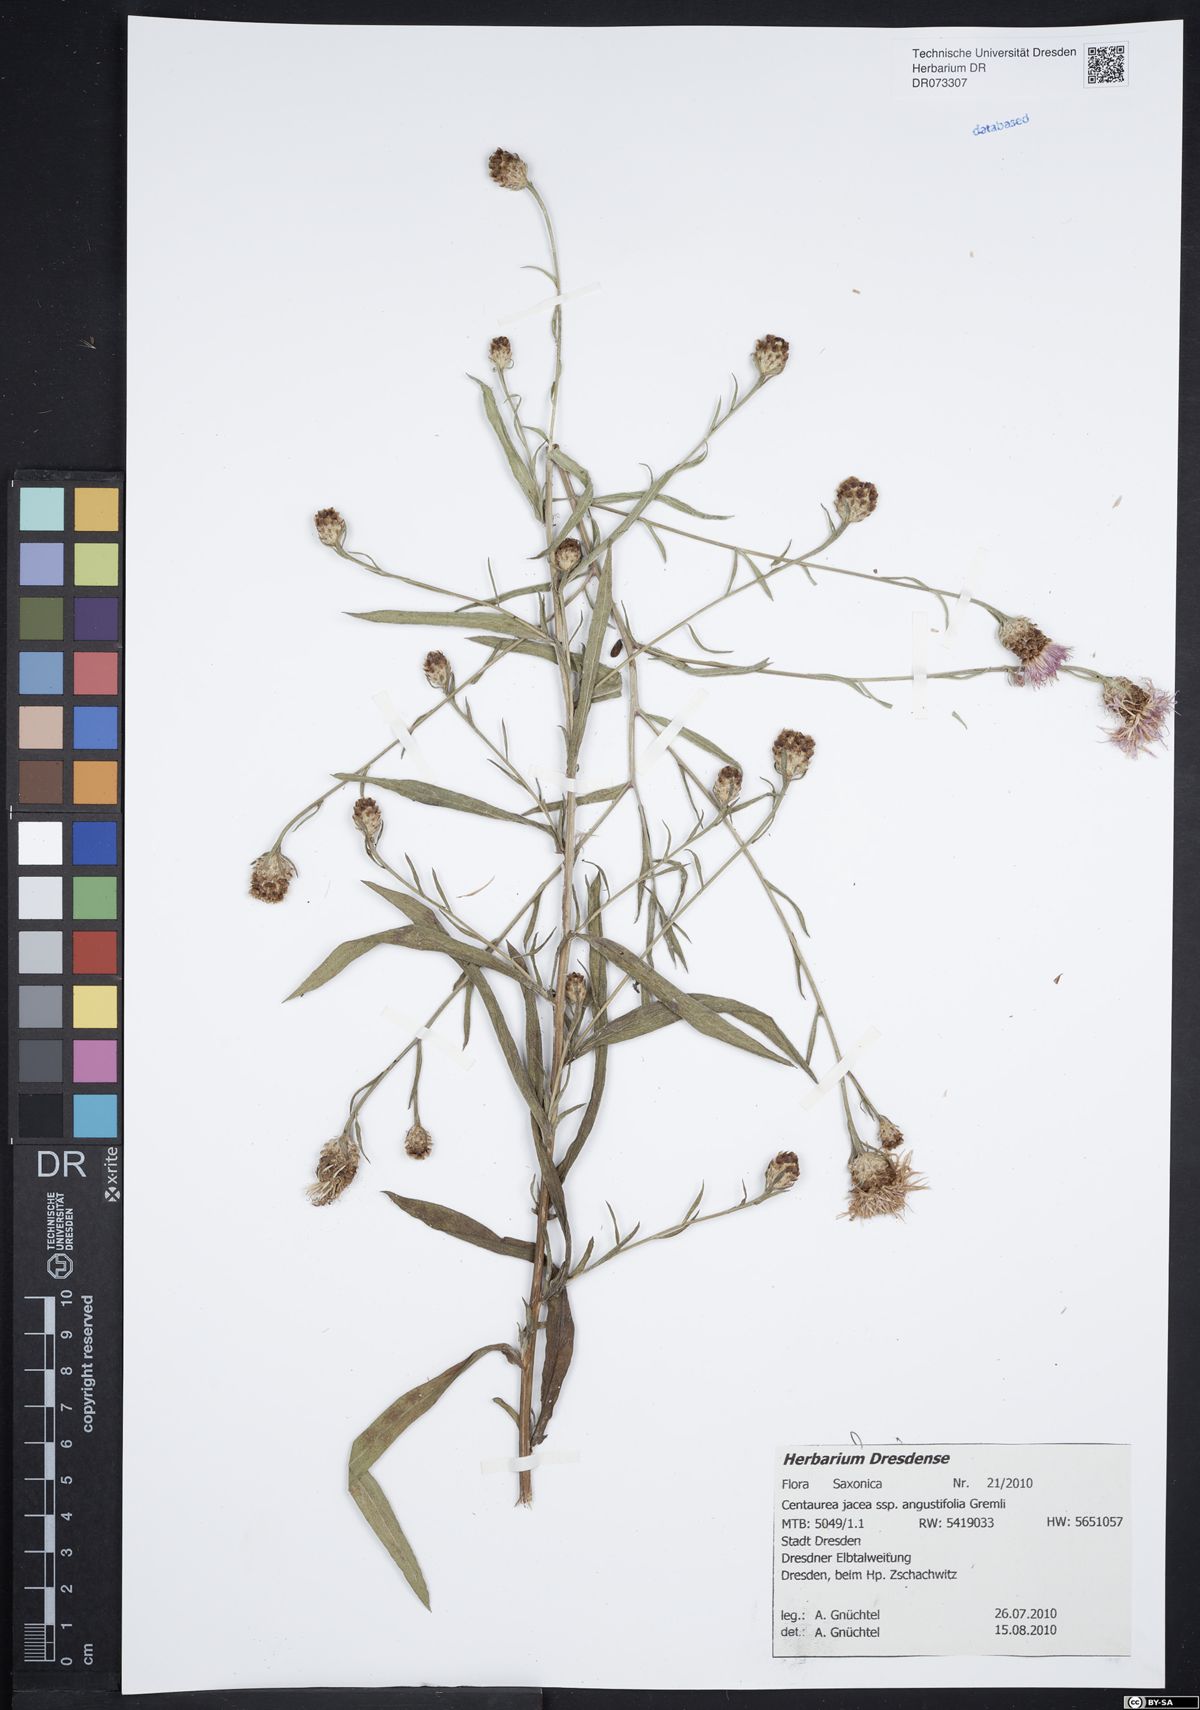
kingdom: Plantae
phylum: Tracheophyta
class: Magnoliopsida
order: Asterales
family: Asteraceae
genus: Centaurea
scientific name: Centaurea pannonica
